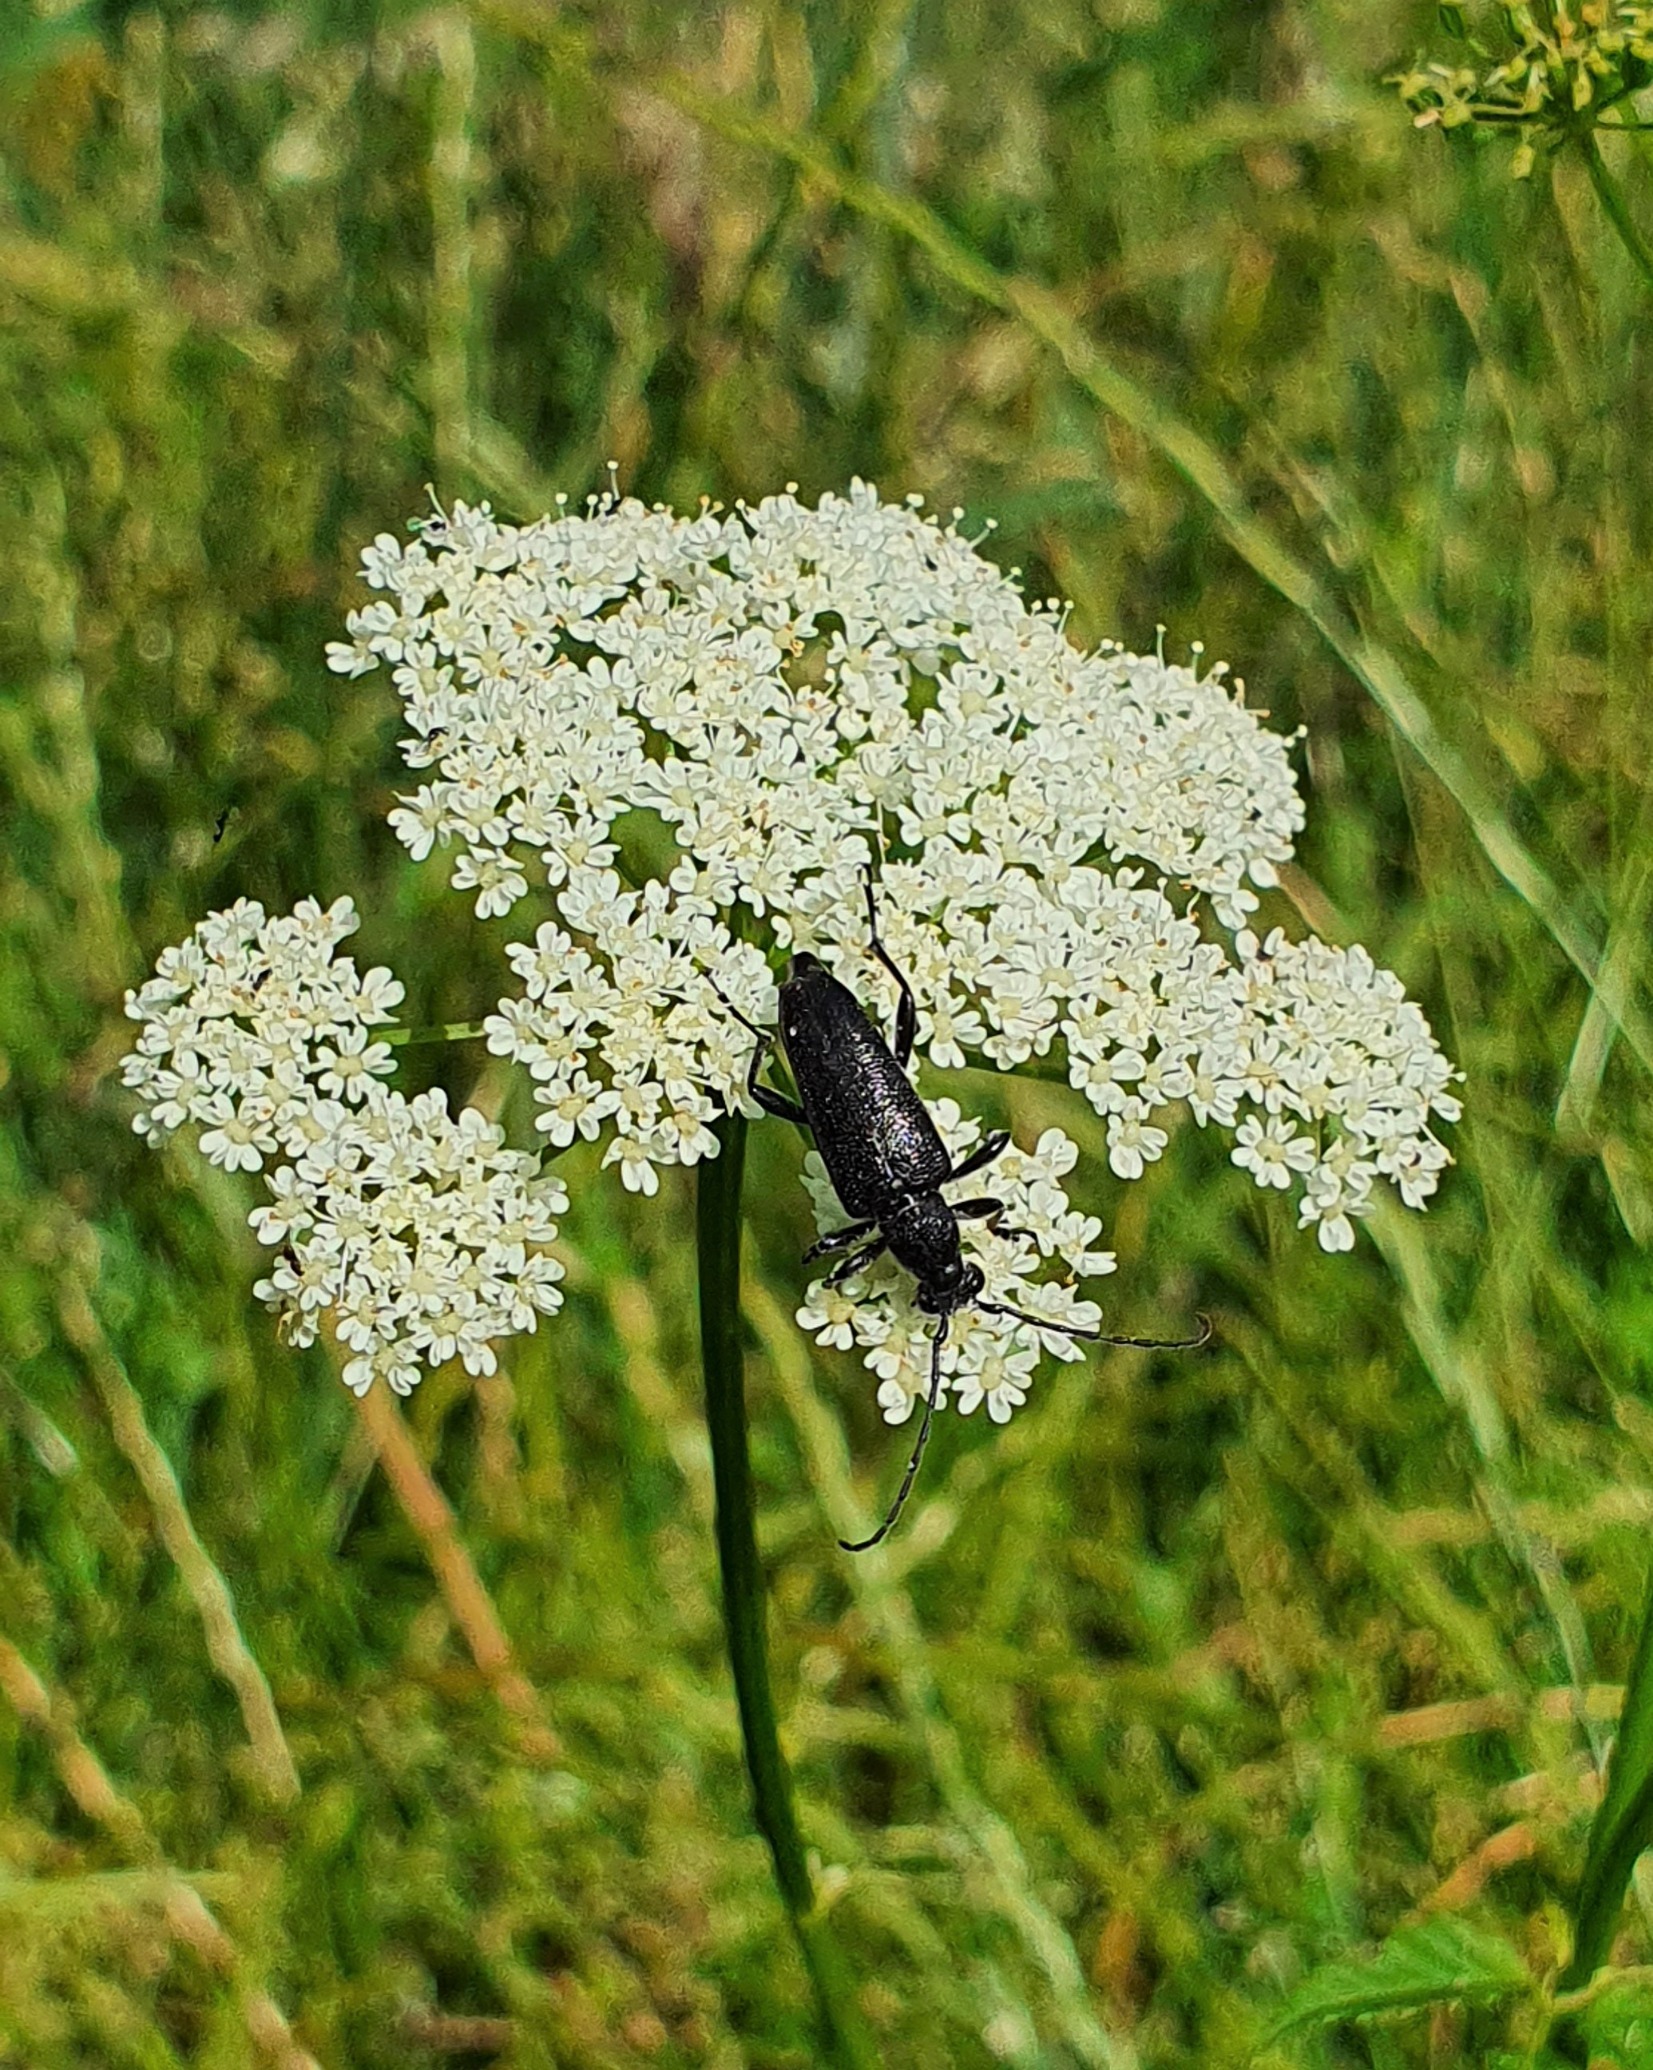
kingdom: Animalia
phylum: Arthropoda
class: Insecta
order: Coleoptera
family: Cerambycidae
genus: Stictoleptura
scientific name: Stictoleptura scutellata
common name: Sort blomsterbuk
